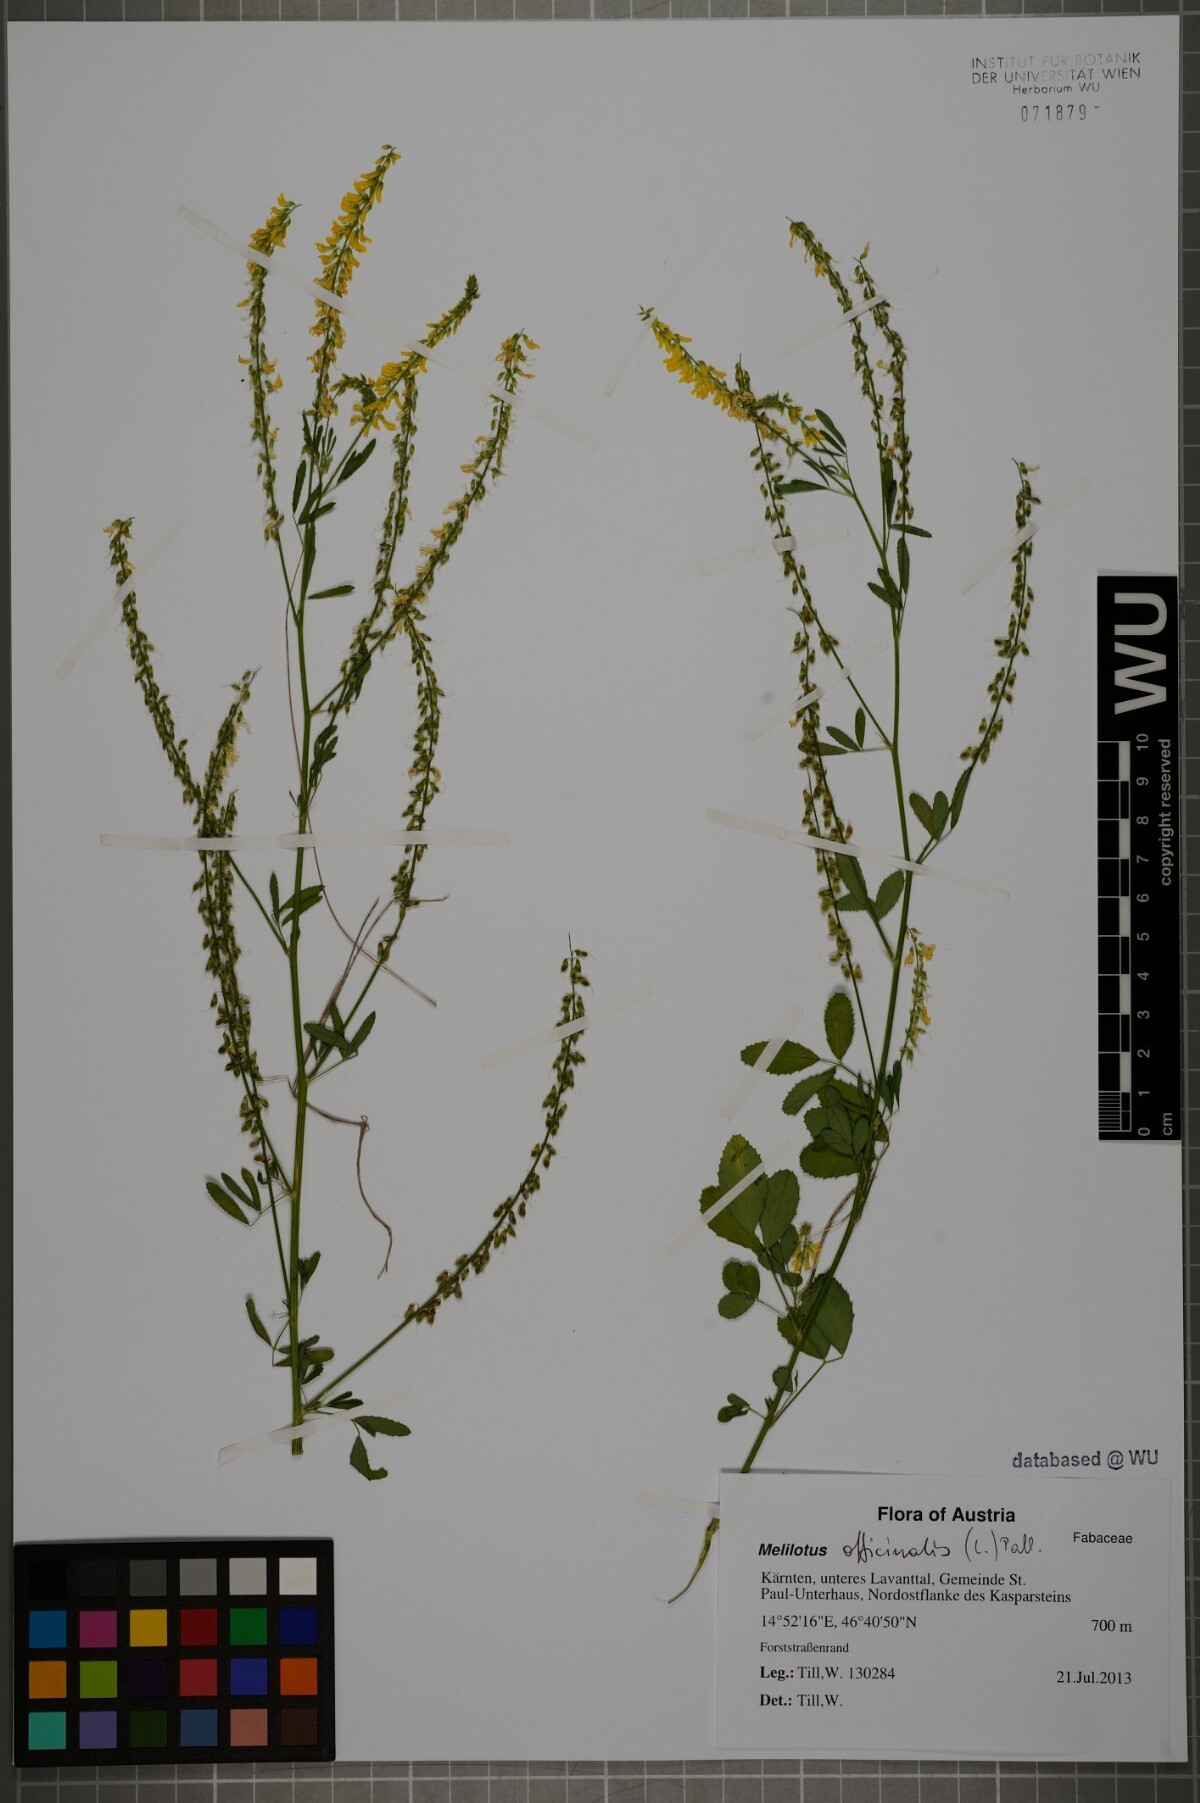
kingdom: Plantae
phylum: Tracheophyta
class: Magnoliopsida
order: Fabales
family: Fabaceae
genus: Melilotus
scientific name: Melilotus officinalis
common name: Sweetclover
